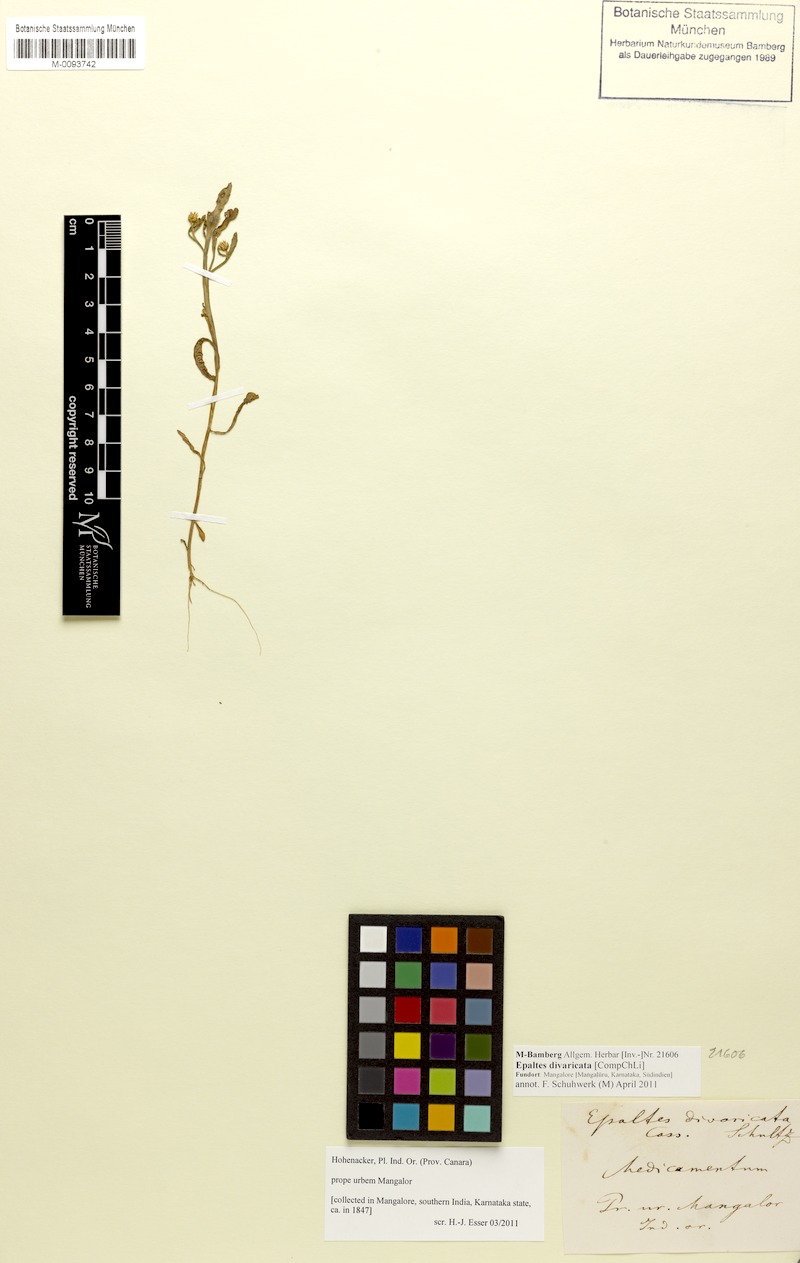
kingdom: Plantae
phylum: Tracheophyta
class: Magnoliopsida
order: Asterales
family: Asteraceae
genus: Epaltes
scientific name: Epaltes divaricata
